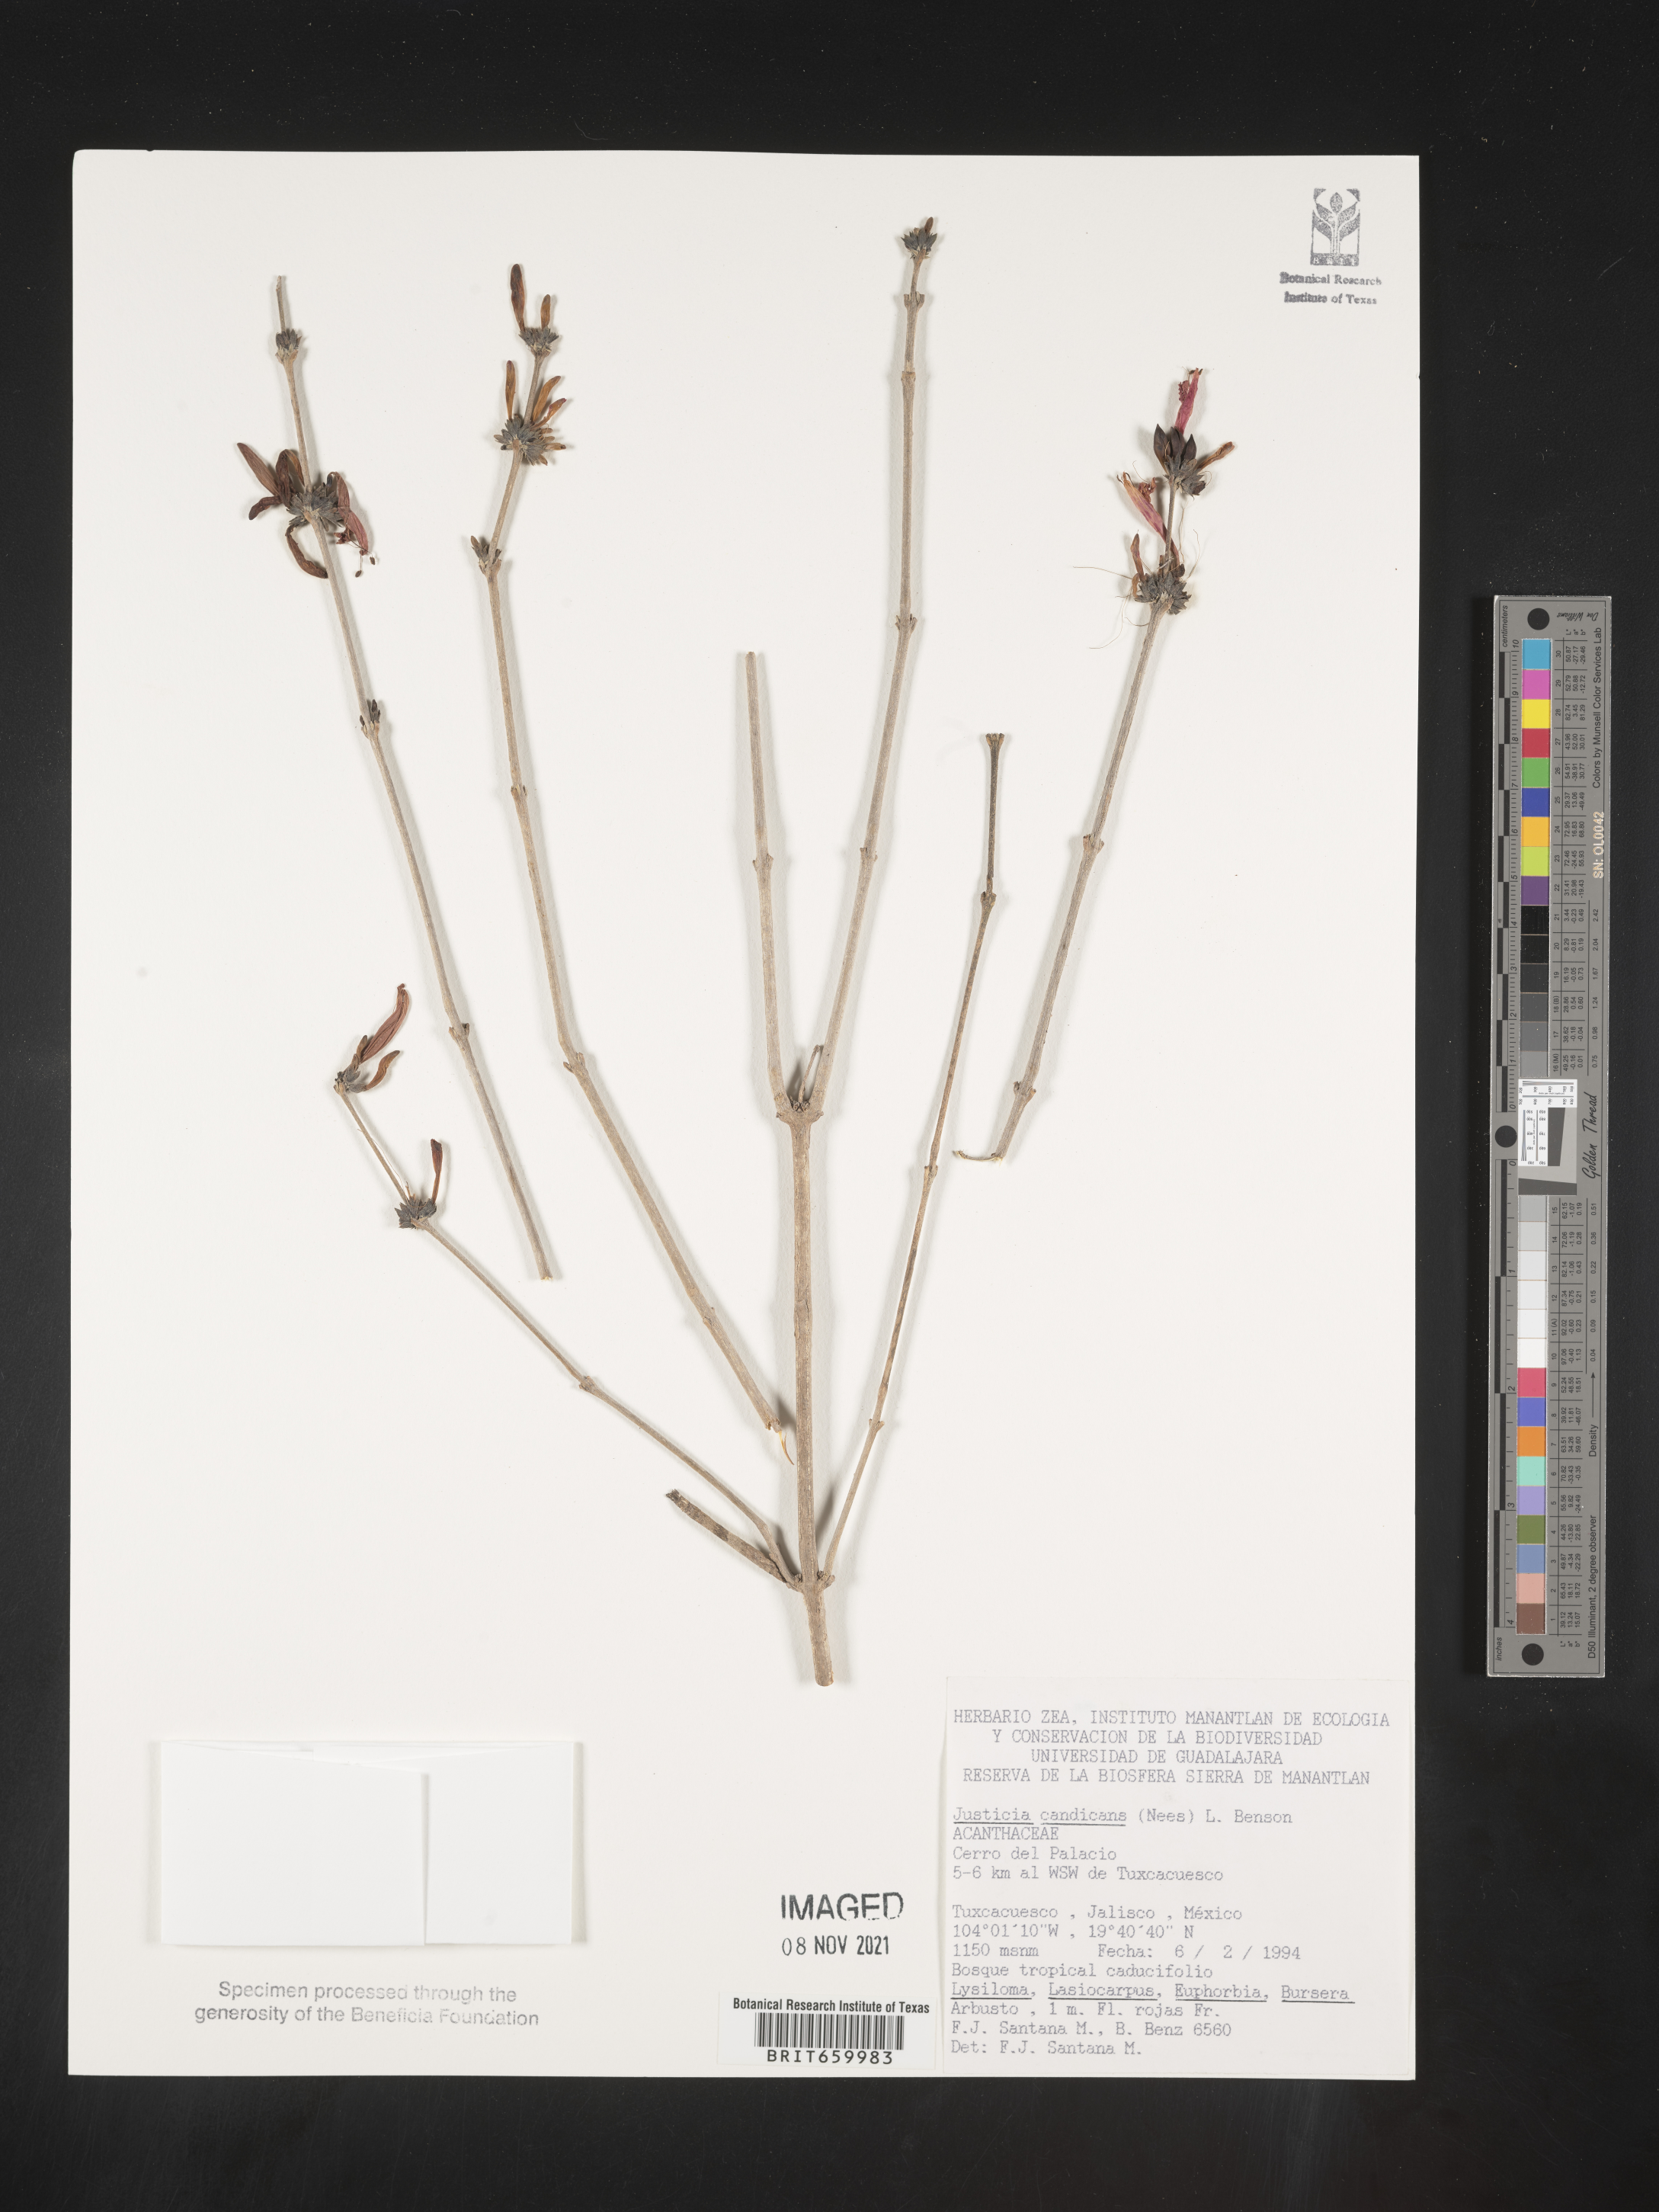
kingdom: Plantae
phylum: Tracheophyta
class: Magnoliopsida
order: Lamiales
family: Acanthaceae
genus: Justicia
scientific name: Justicia
